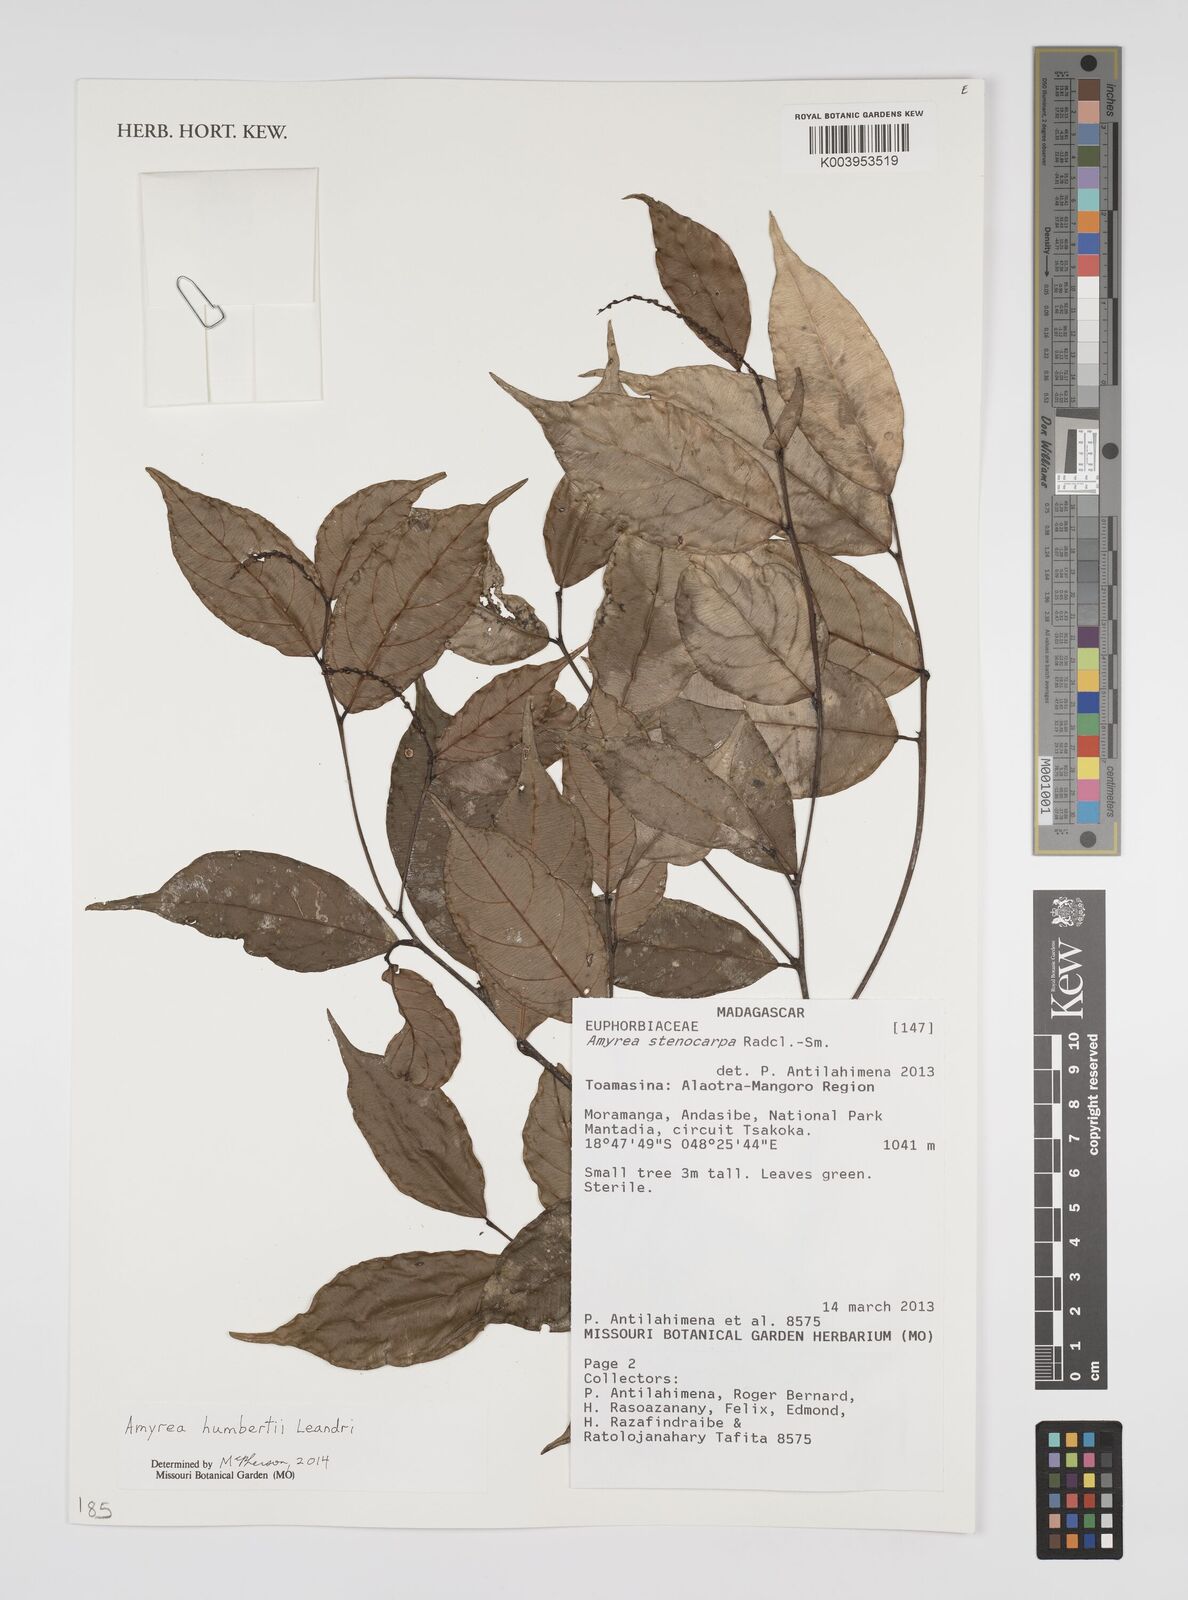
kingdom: Plantae
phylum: Tracheophyta
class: Magnoliopsida
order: Malpighiales
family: Euphorbiaceae
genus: Amyrea
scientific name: Amyrea stenocarpa
